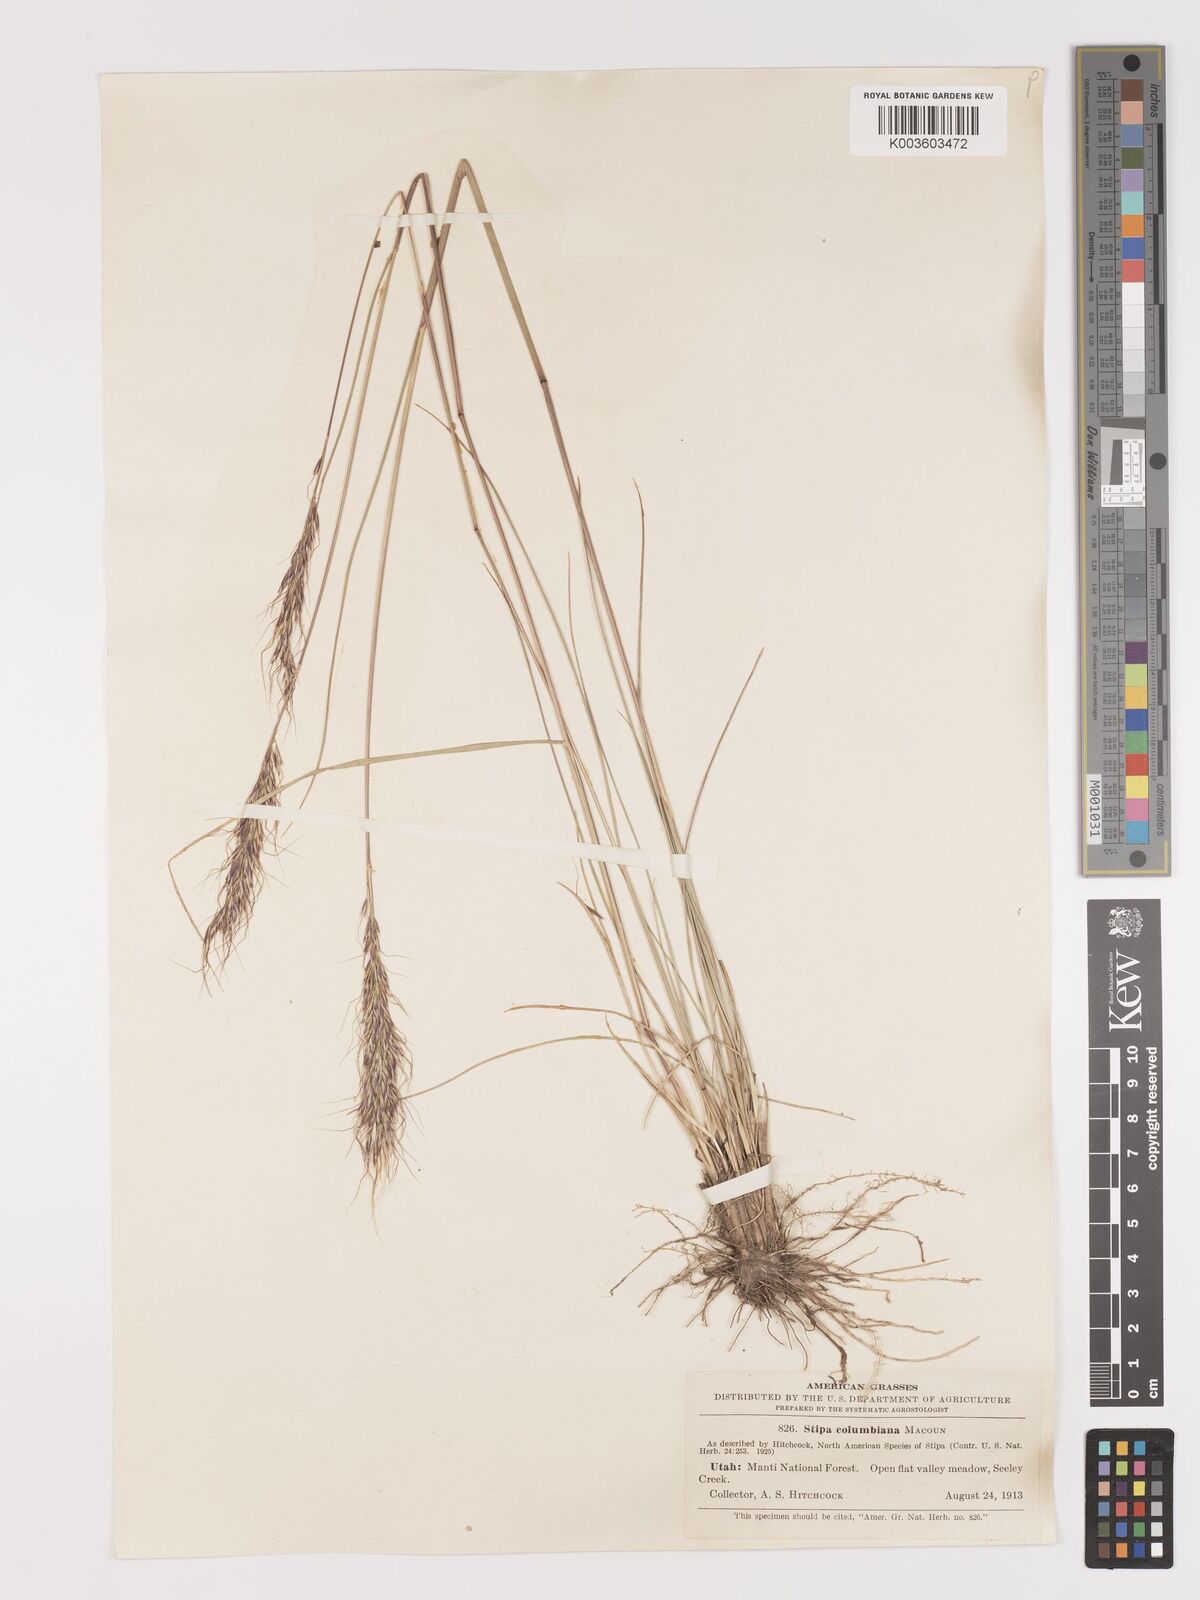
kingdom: Plantae
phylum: Tracheophyta
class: Liliopsida
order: Poales
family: Poaceae
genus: Eriocoma
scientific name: Eriocoma nelsonii
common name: Nelson's needlegrass
